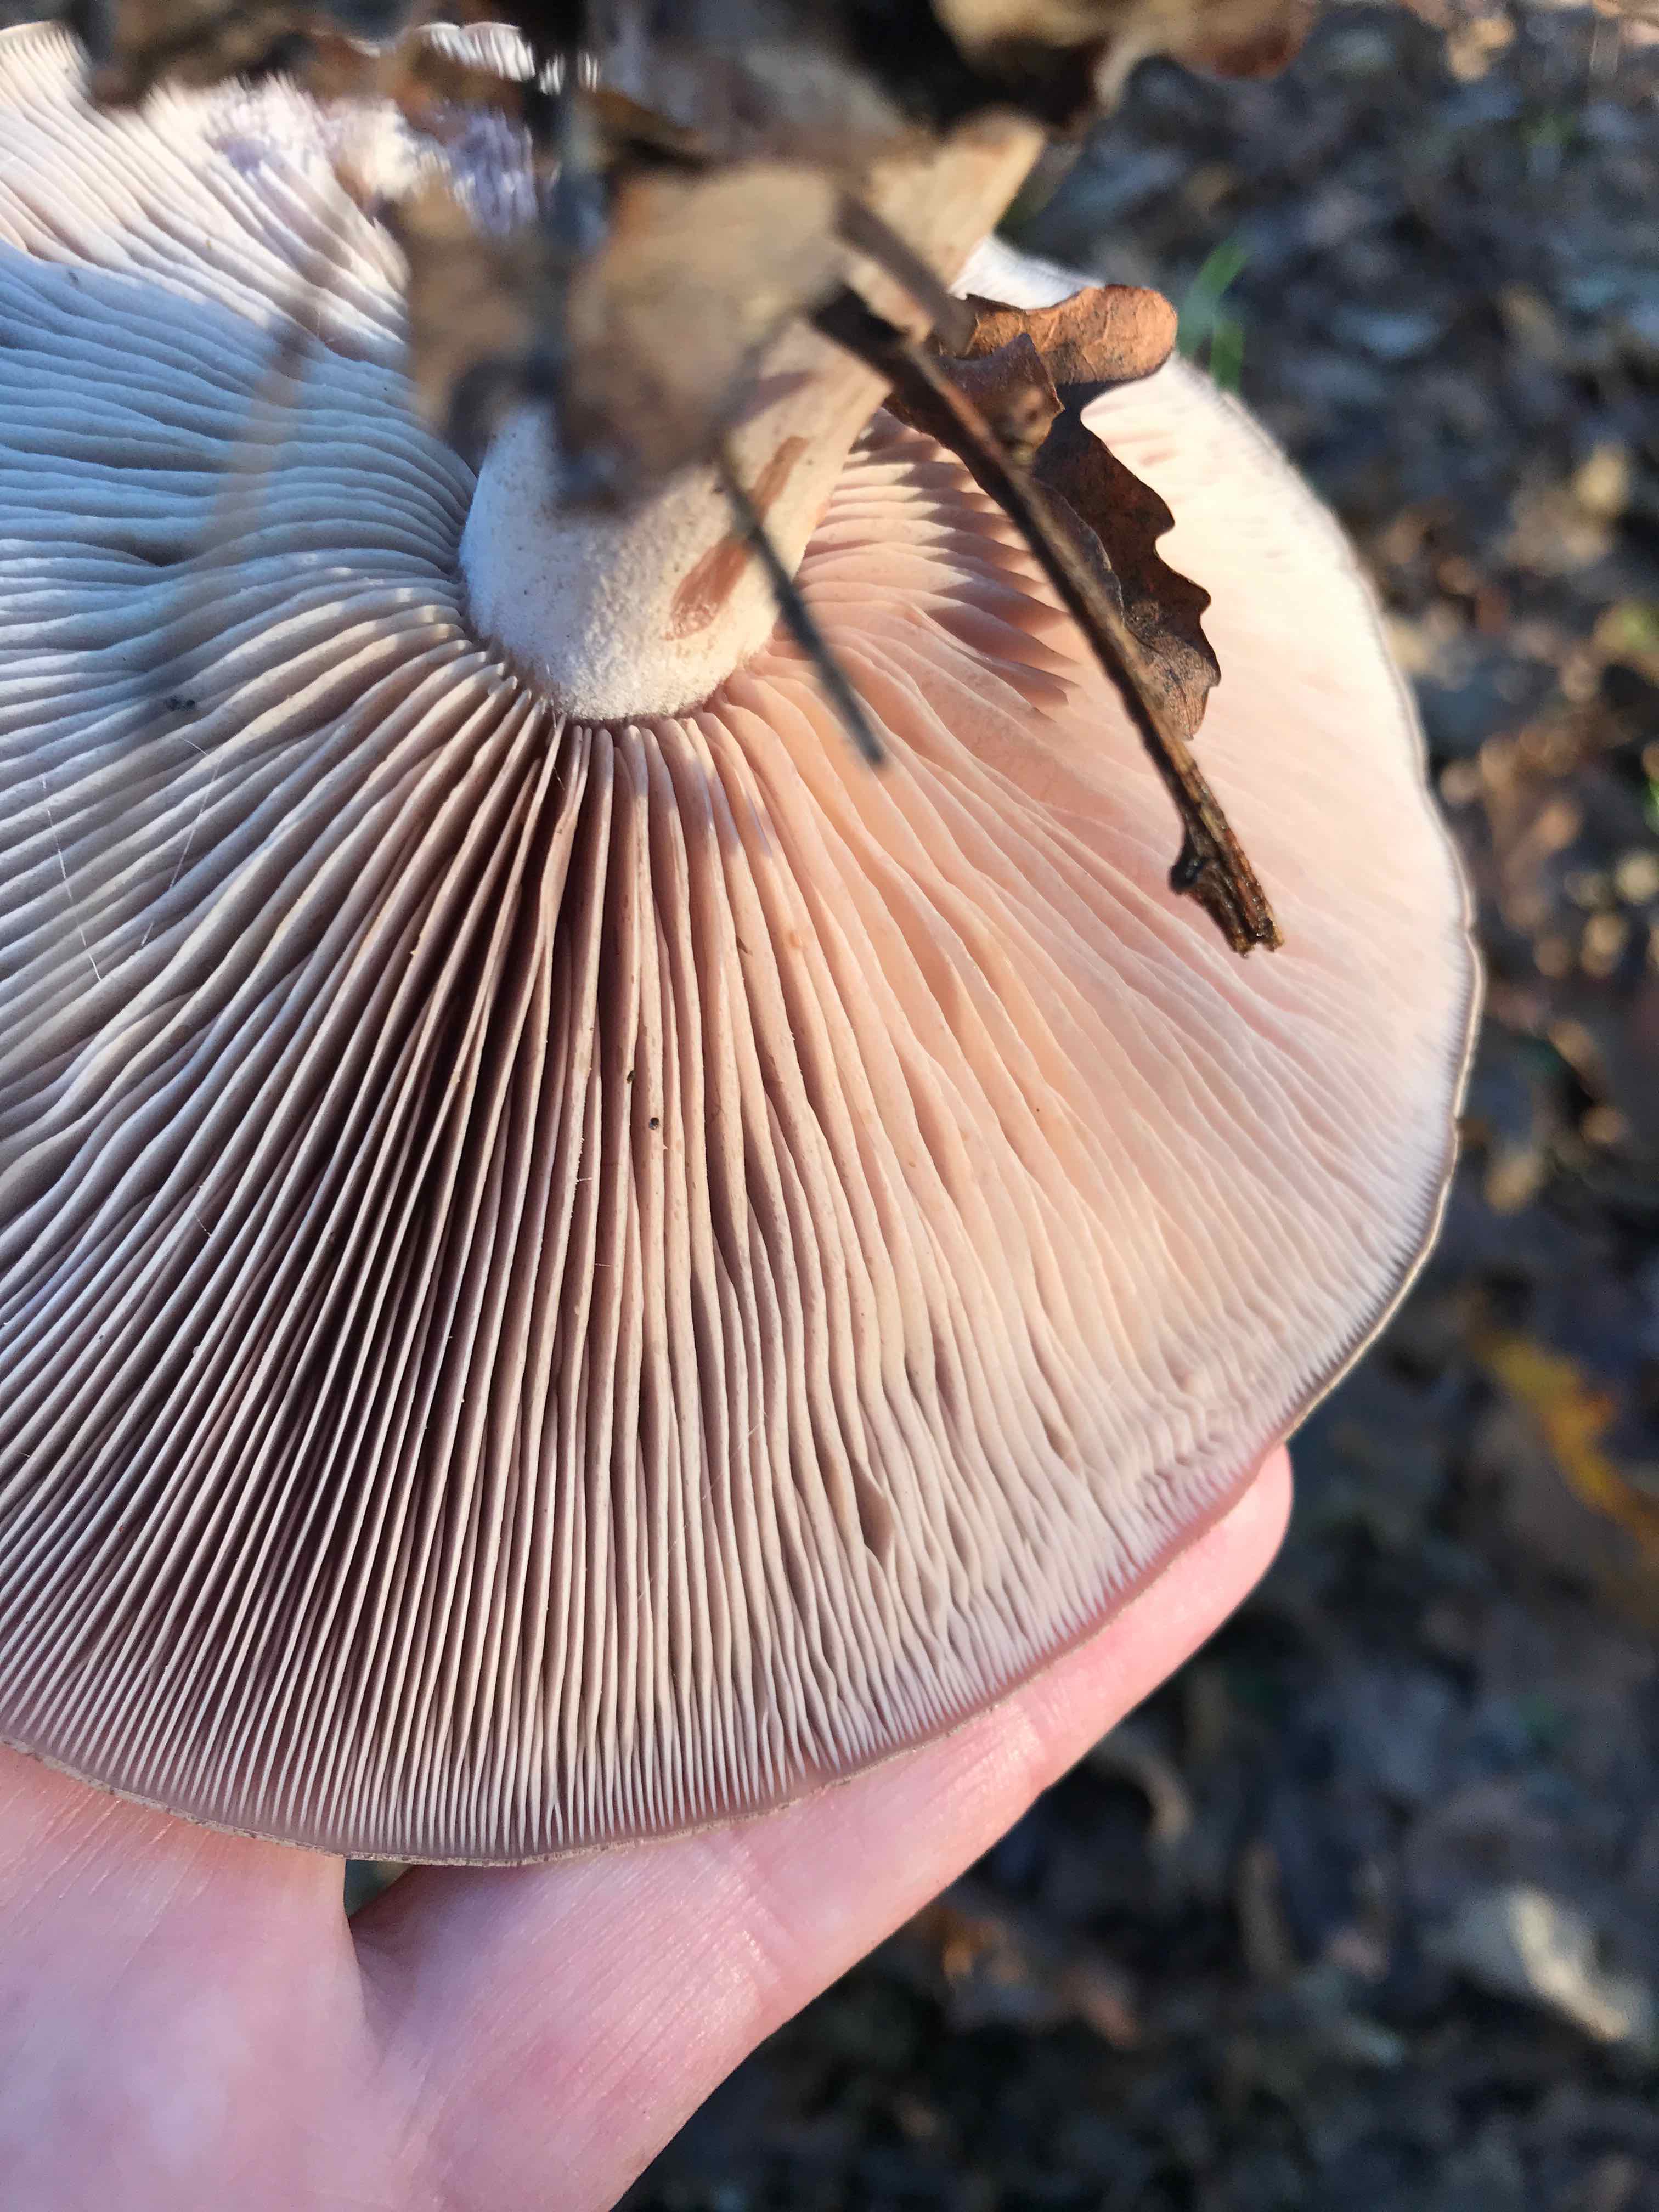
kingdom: Fungi
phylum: Basidiomycota
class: Agaricomycetes
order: Agaricales
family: Tricholomataceae
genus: Lepista
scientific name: Lepista nuda
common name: violet hekseringshat
